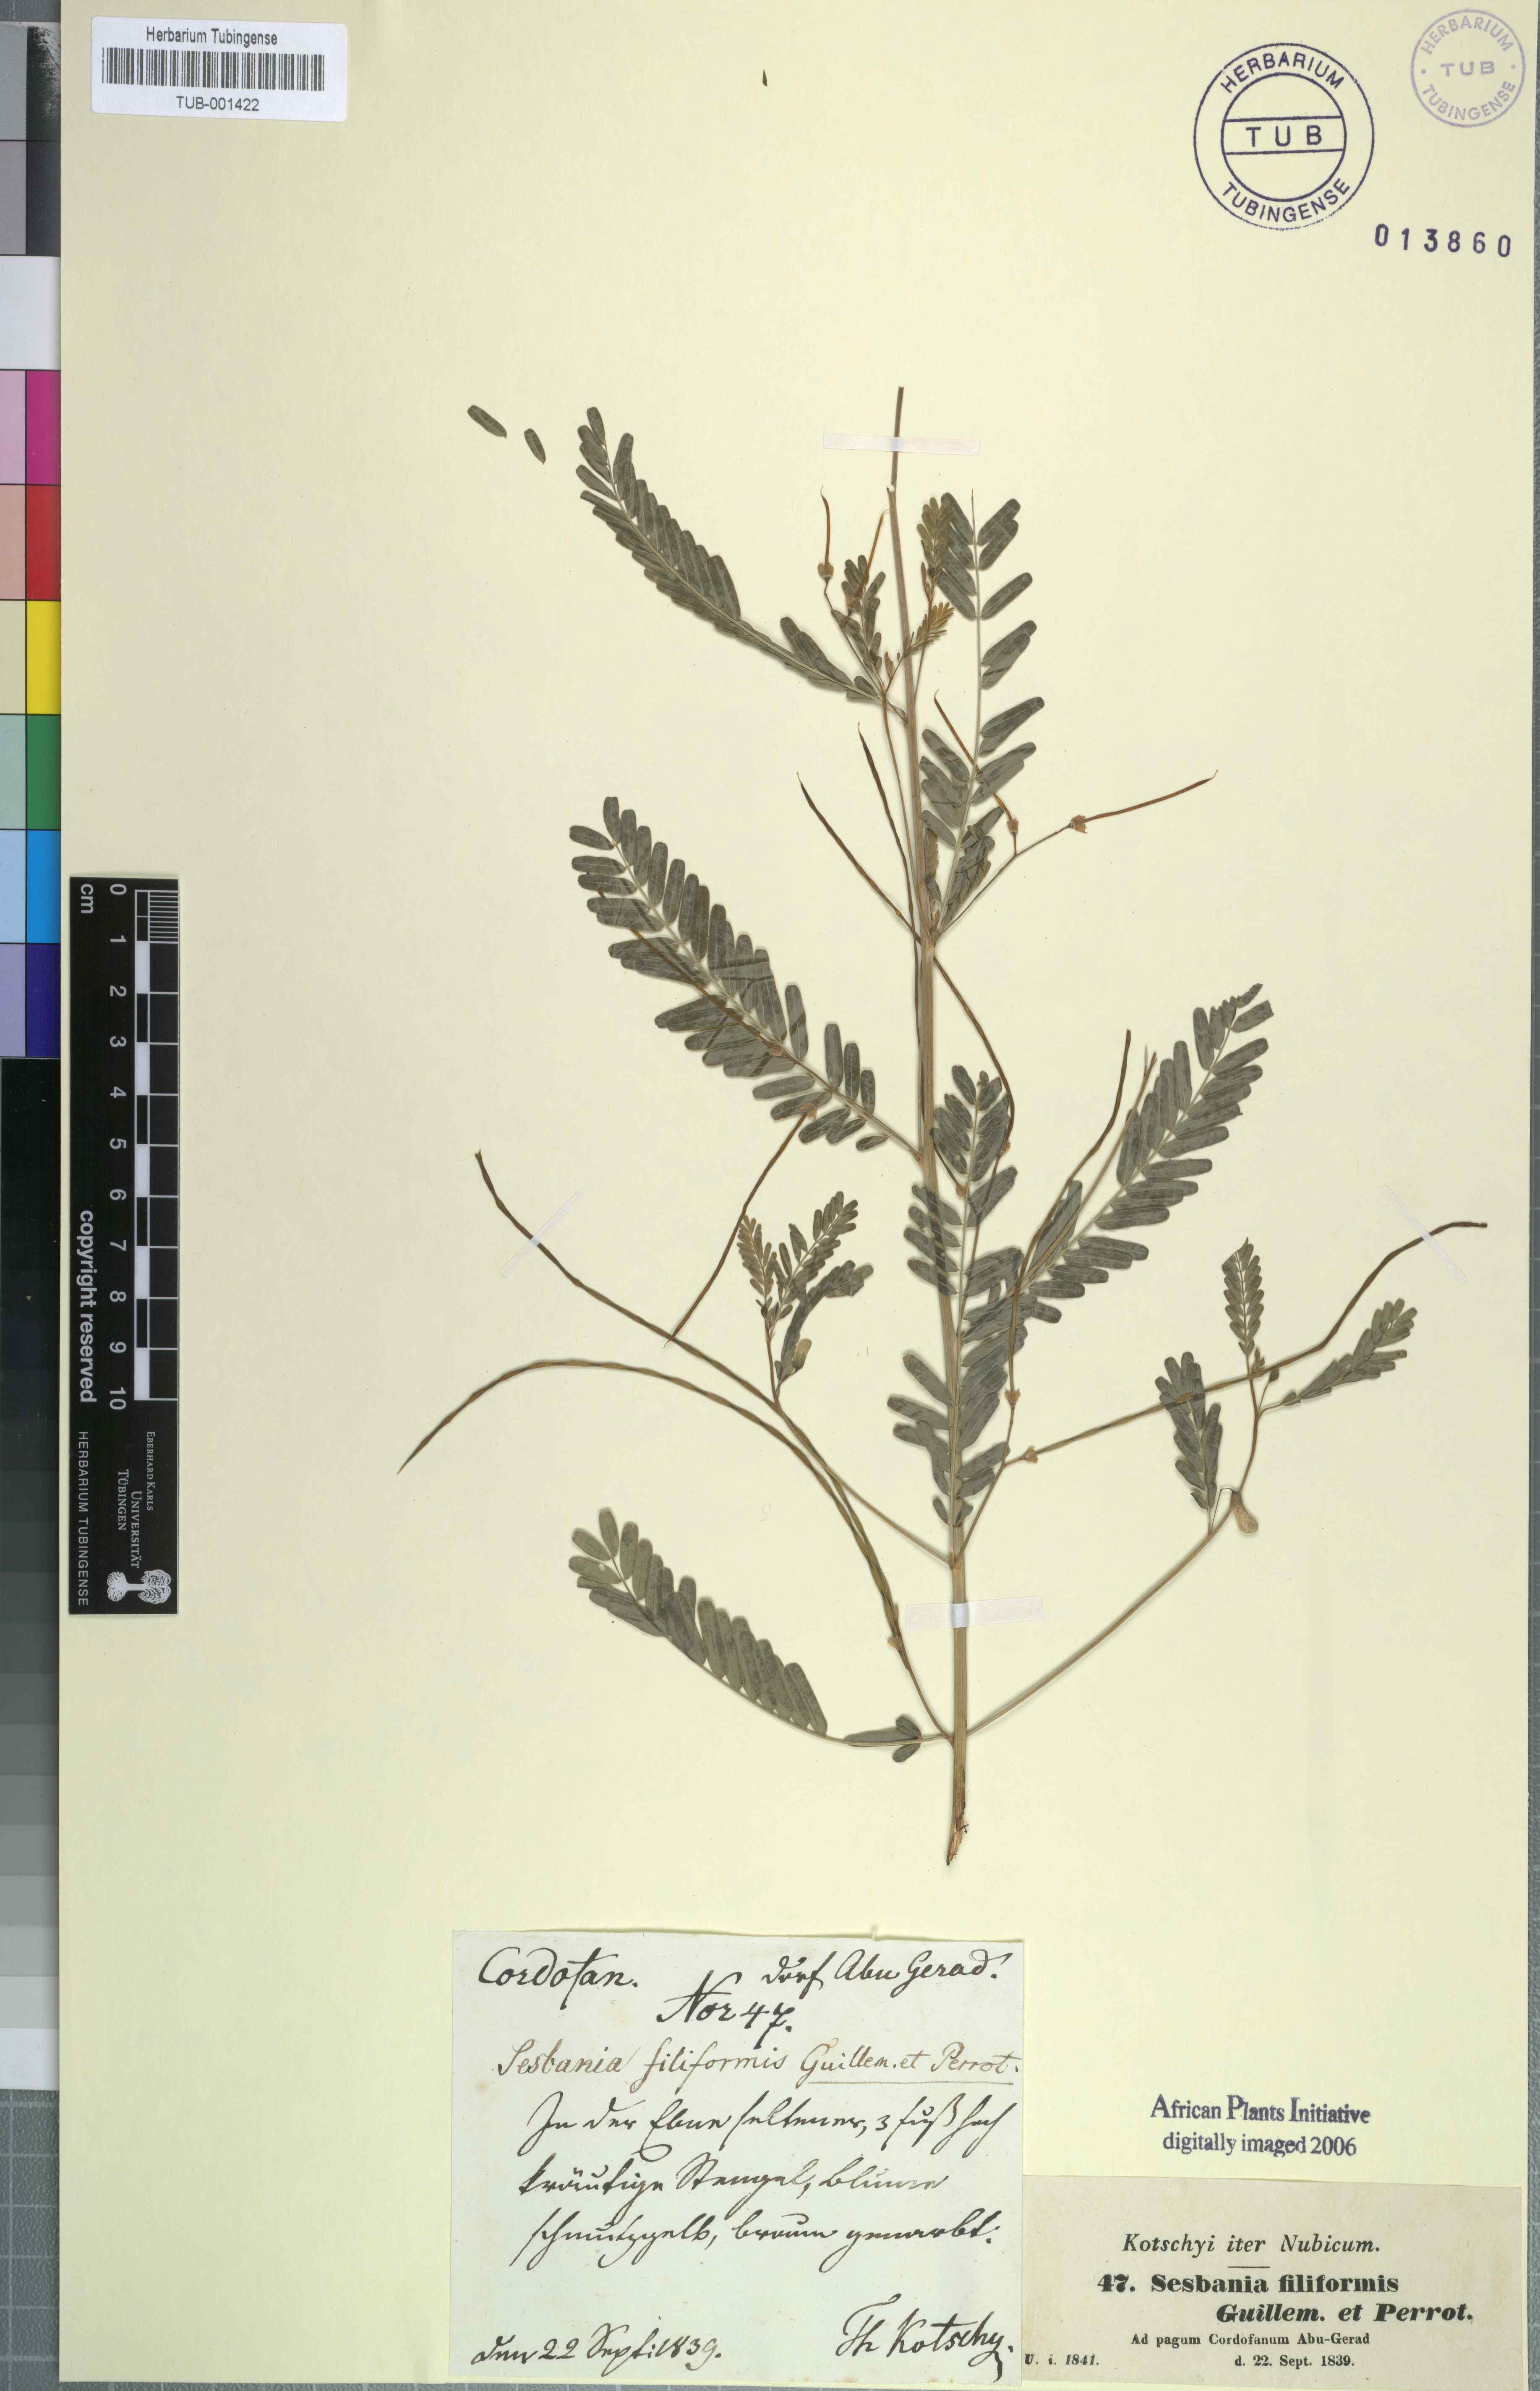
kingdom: Plantae
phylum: Tracheophyta
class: Magnoliopsida
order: Fabales
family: Fabaceae
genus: Sesbania
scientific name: Sesbania leptocarpa
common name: Riverhemp
